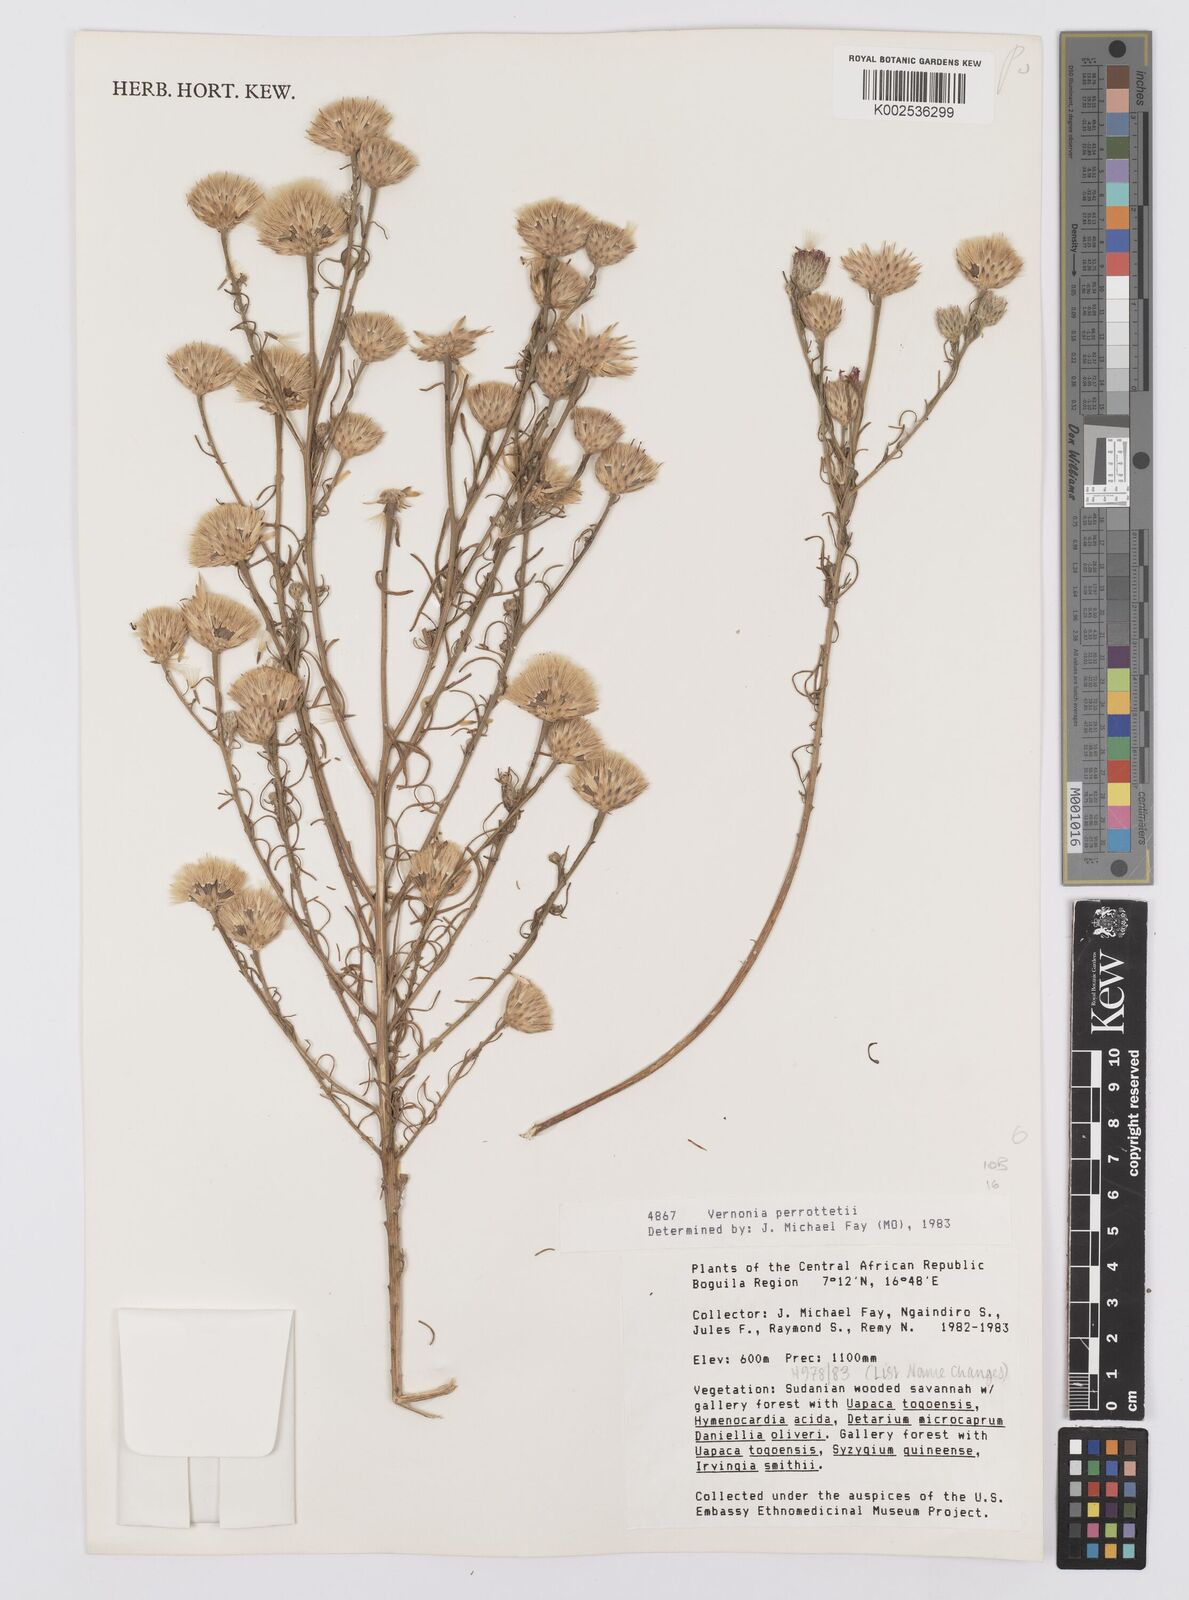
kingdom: Plantae
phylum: Tracheophyta
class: Magnoliopsida
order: Asterales
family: Asteraceae
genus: Crystallopollen
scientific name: Crystallopollen serratuloides
